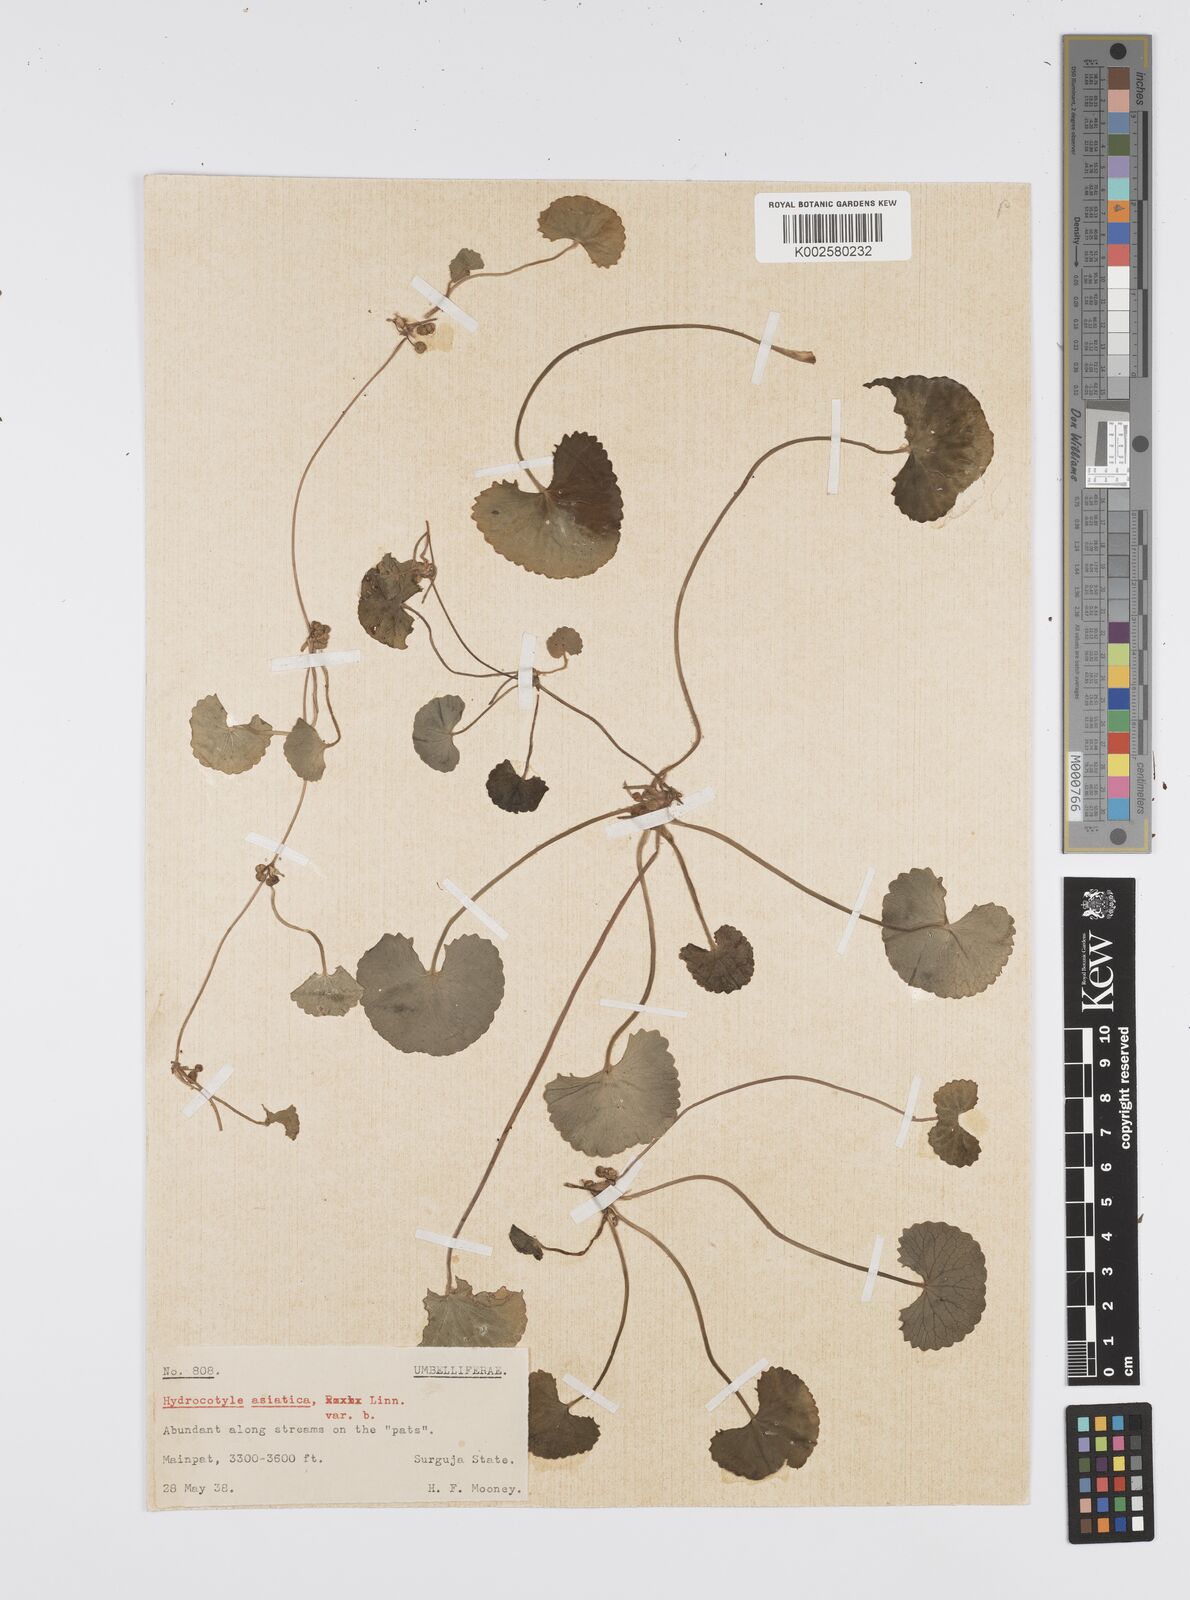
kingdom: Plantae
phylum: Tracheophyta
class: Magnoliopsida
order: Apiales
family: Apiaceae
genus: Centella
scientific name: Centella asiatica
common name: Spadeleaf
